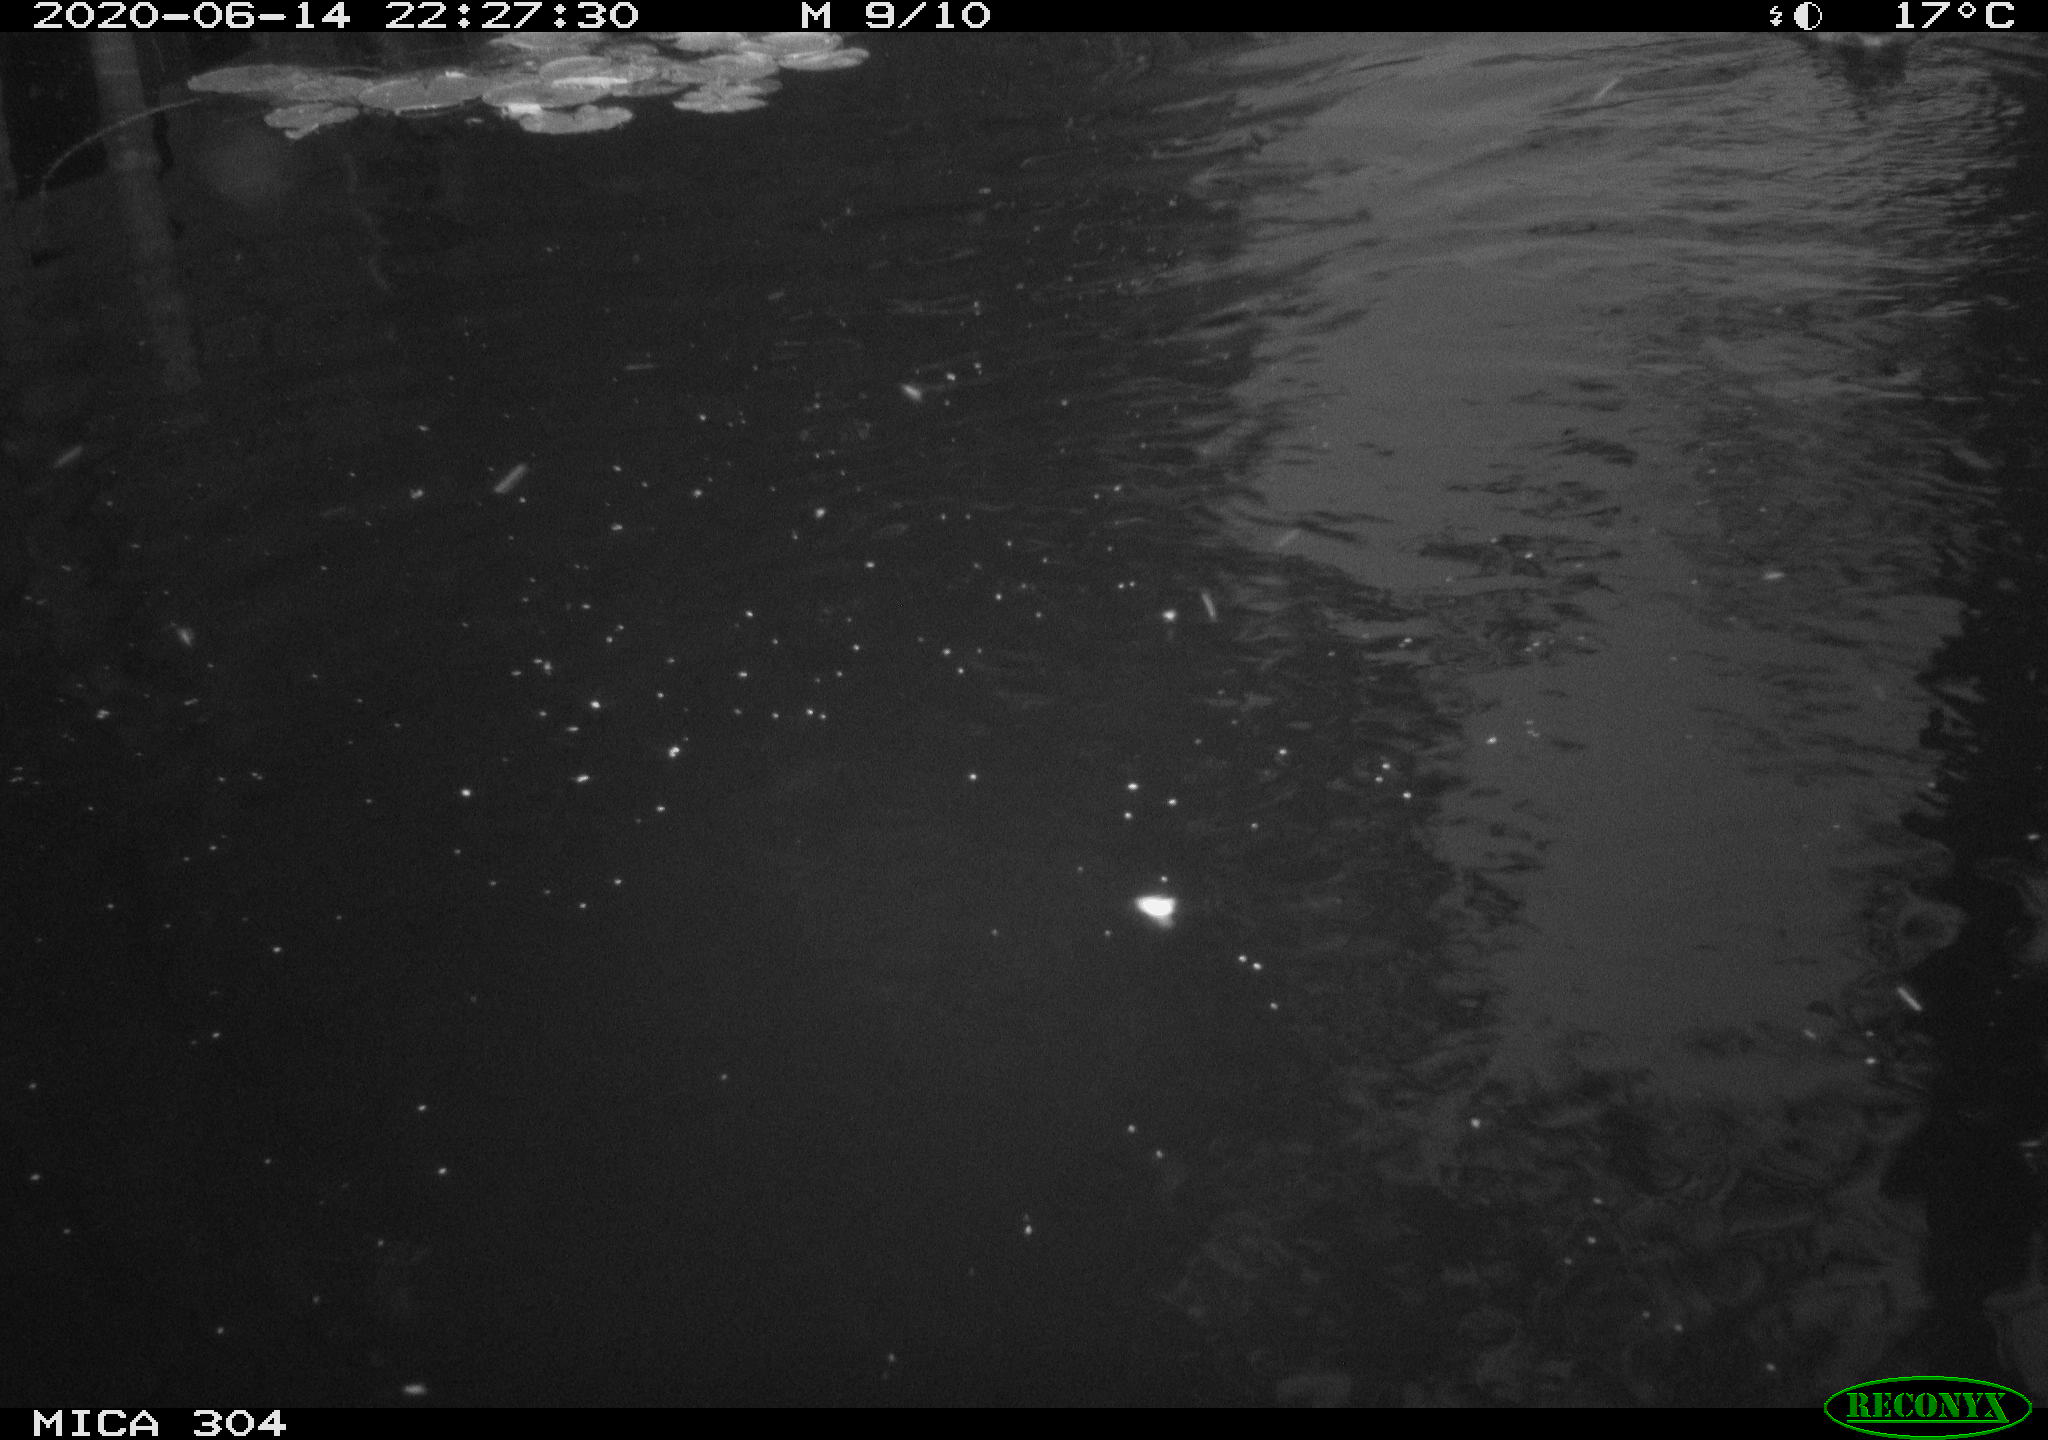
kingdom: Animalia
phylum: Chordata
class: Aves
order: Anseriformes
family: Anatidae
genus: Anas
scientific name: Anas platyrhynchos
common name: Mallard
